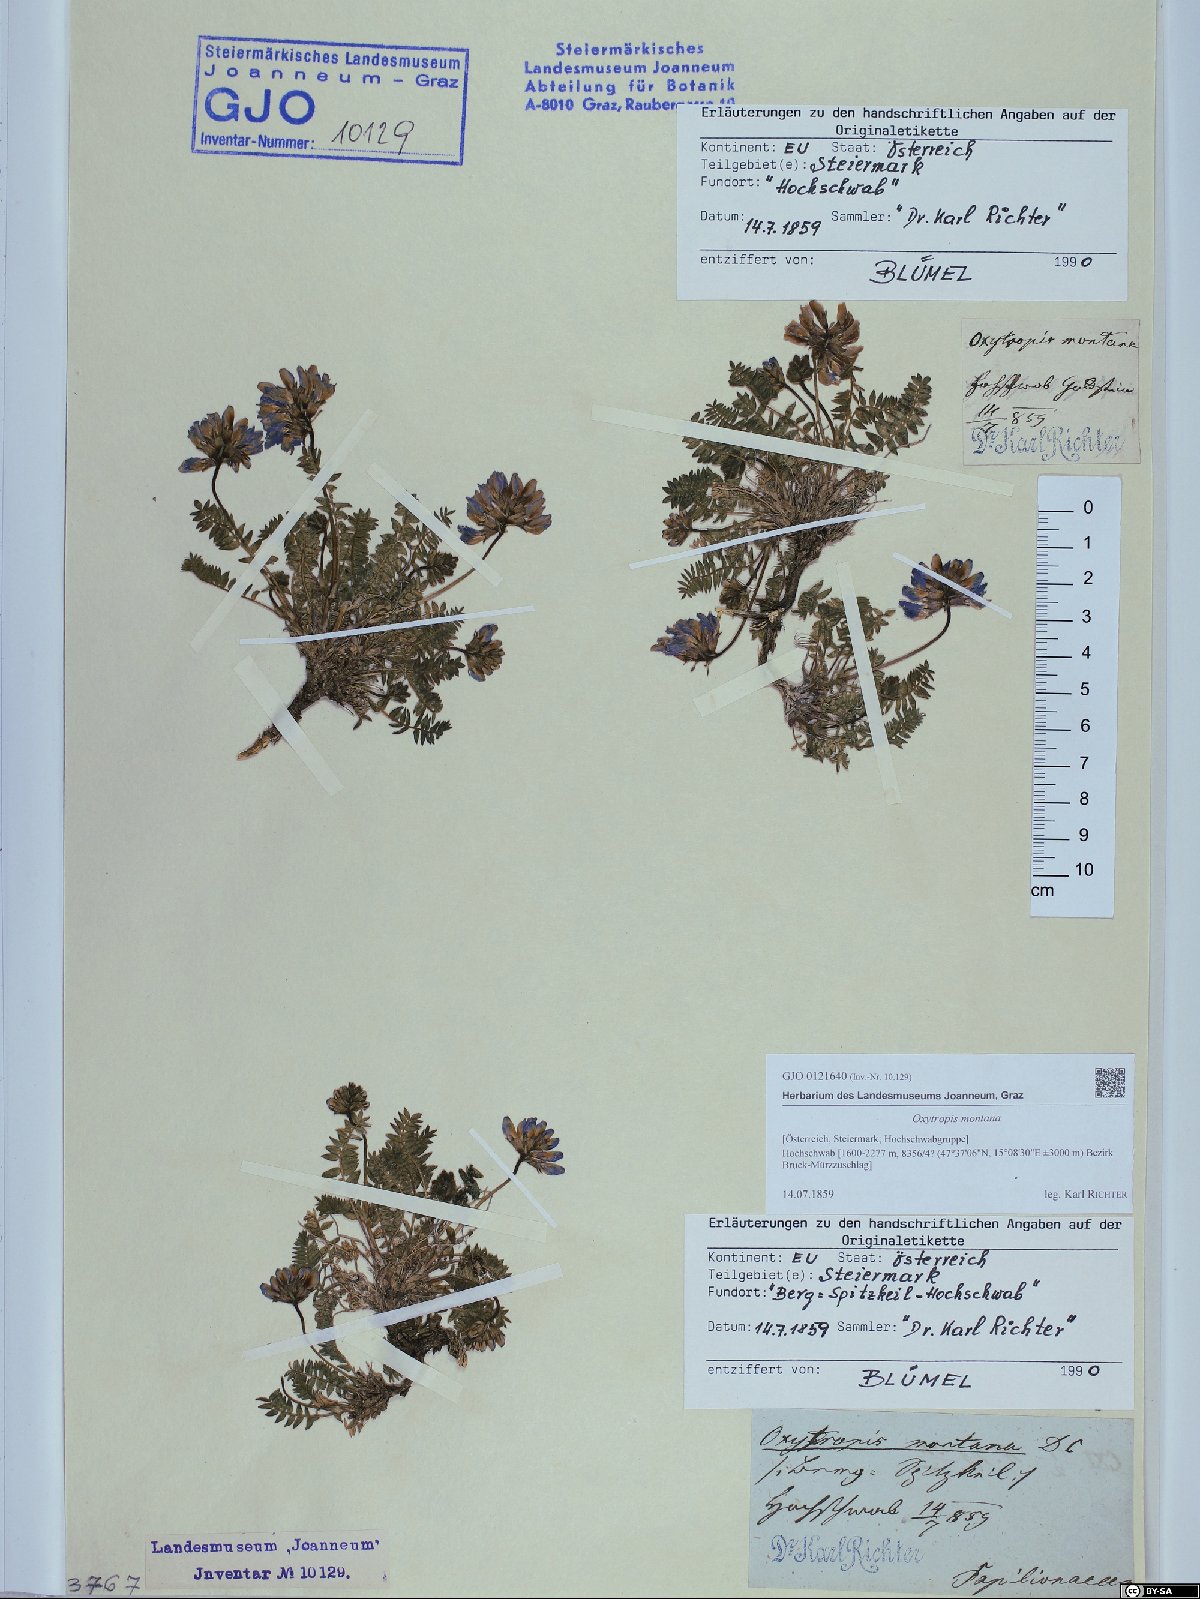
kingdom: Plantae
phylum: Tracheophyta
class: Magnoliopsida
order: Fabales
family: Fabaceae
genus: Oxytropis
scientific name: Oxytropis montana
